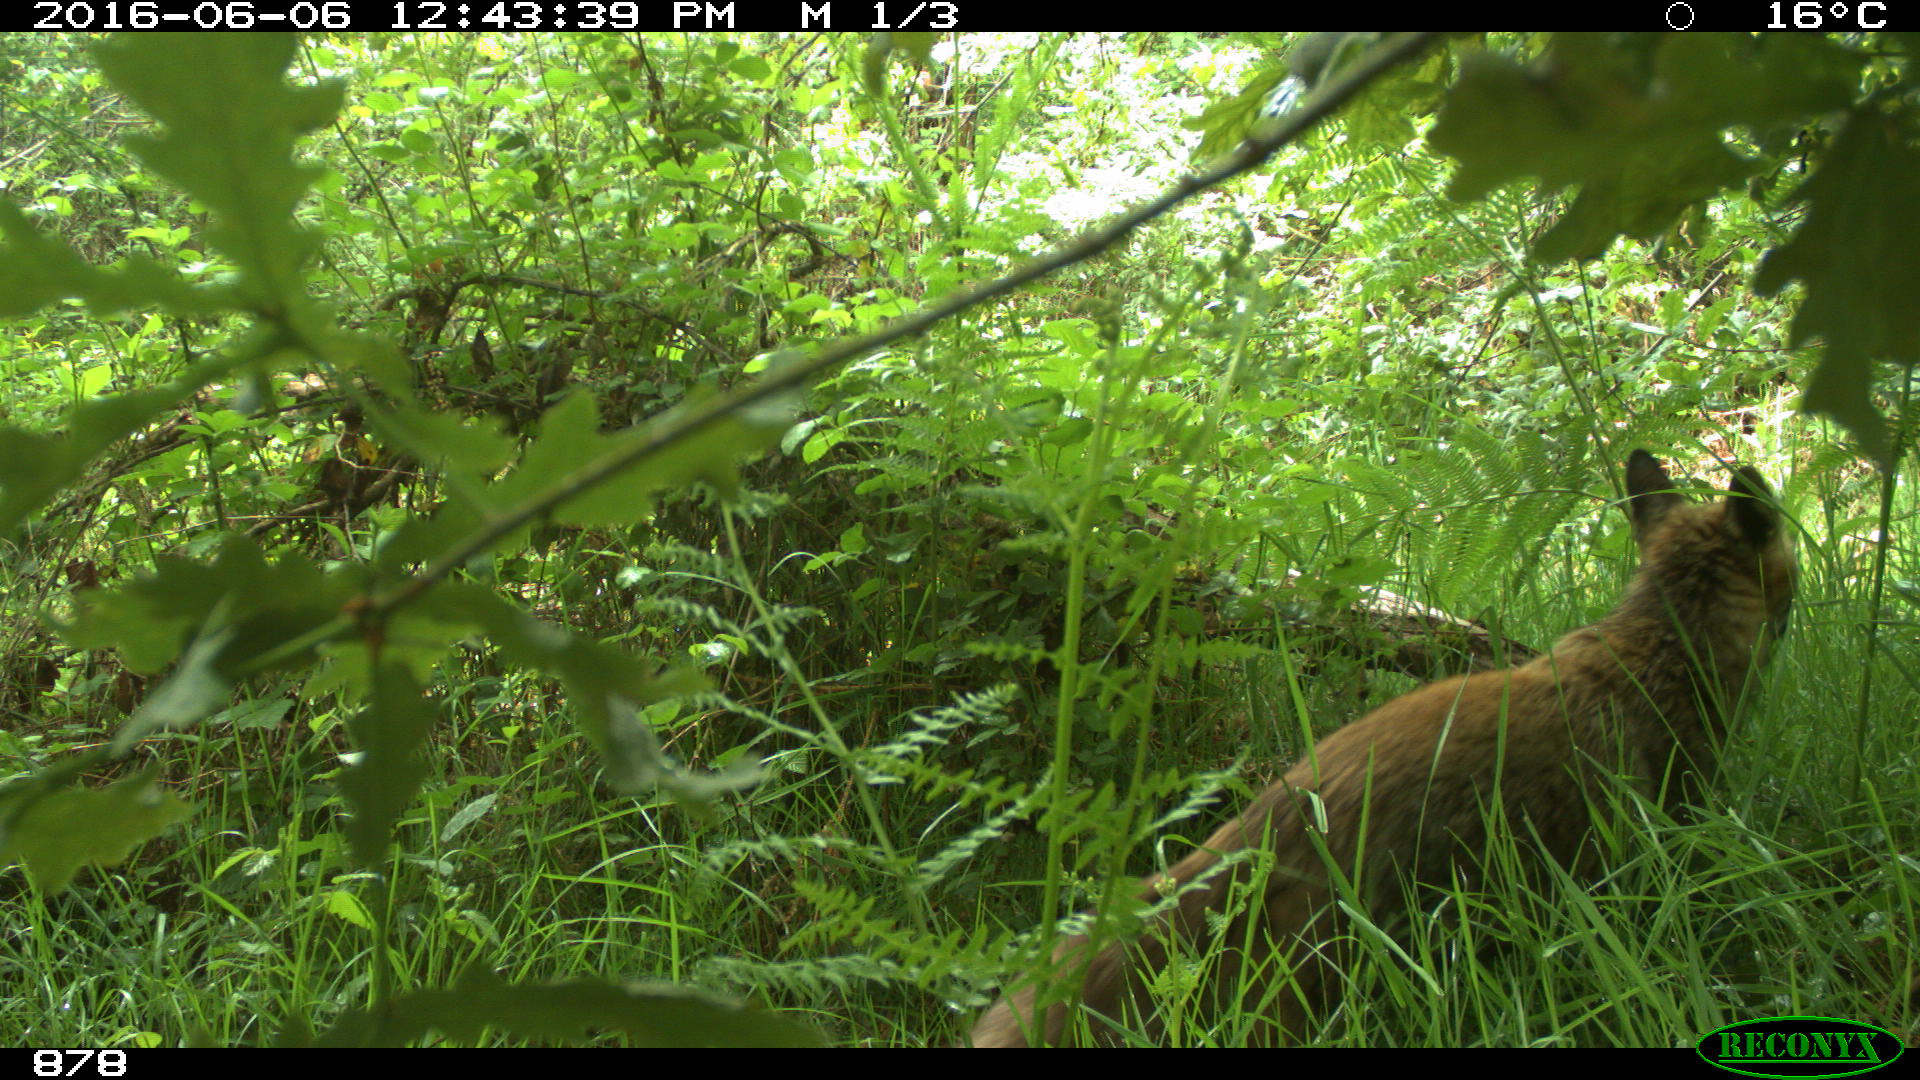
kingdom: Animalia
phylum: Chordata
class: Mammalia
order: Carnivora
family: Canidae
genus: Vulpes
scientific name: Vulpes vulpes
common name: Red fox
